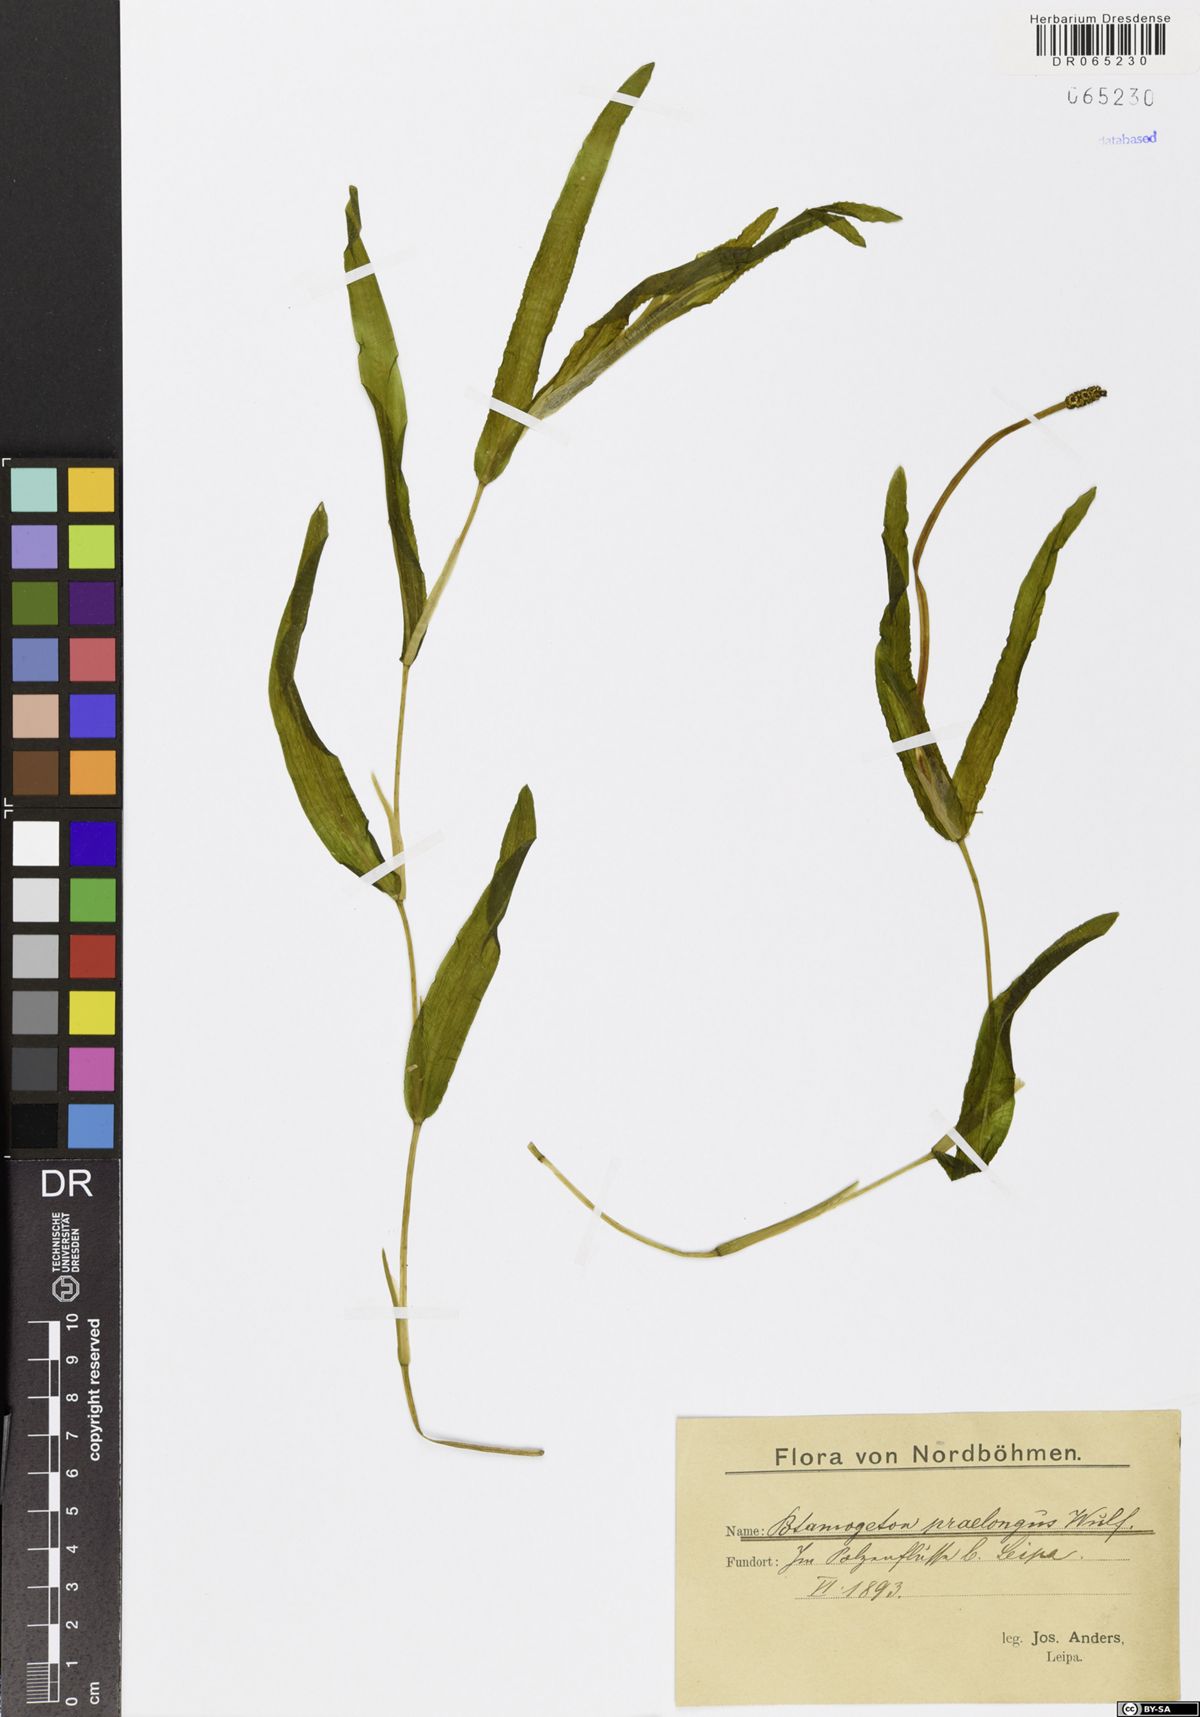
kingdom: Plantae
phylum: Tracheophyta
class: Liliopsida
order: Alismatales
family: Potamogetonaceae
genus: Potamogeton
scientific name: Potamogeton praelongus
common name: Long-stalked pondweed
